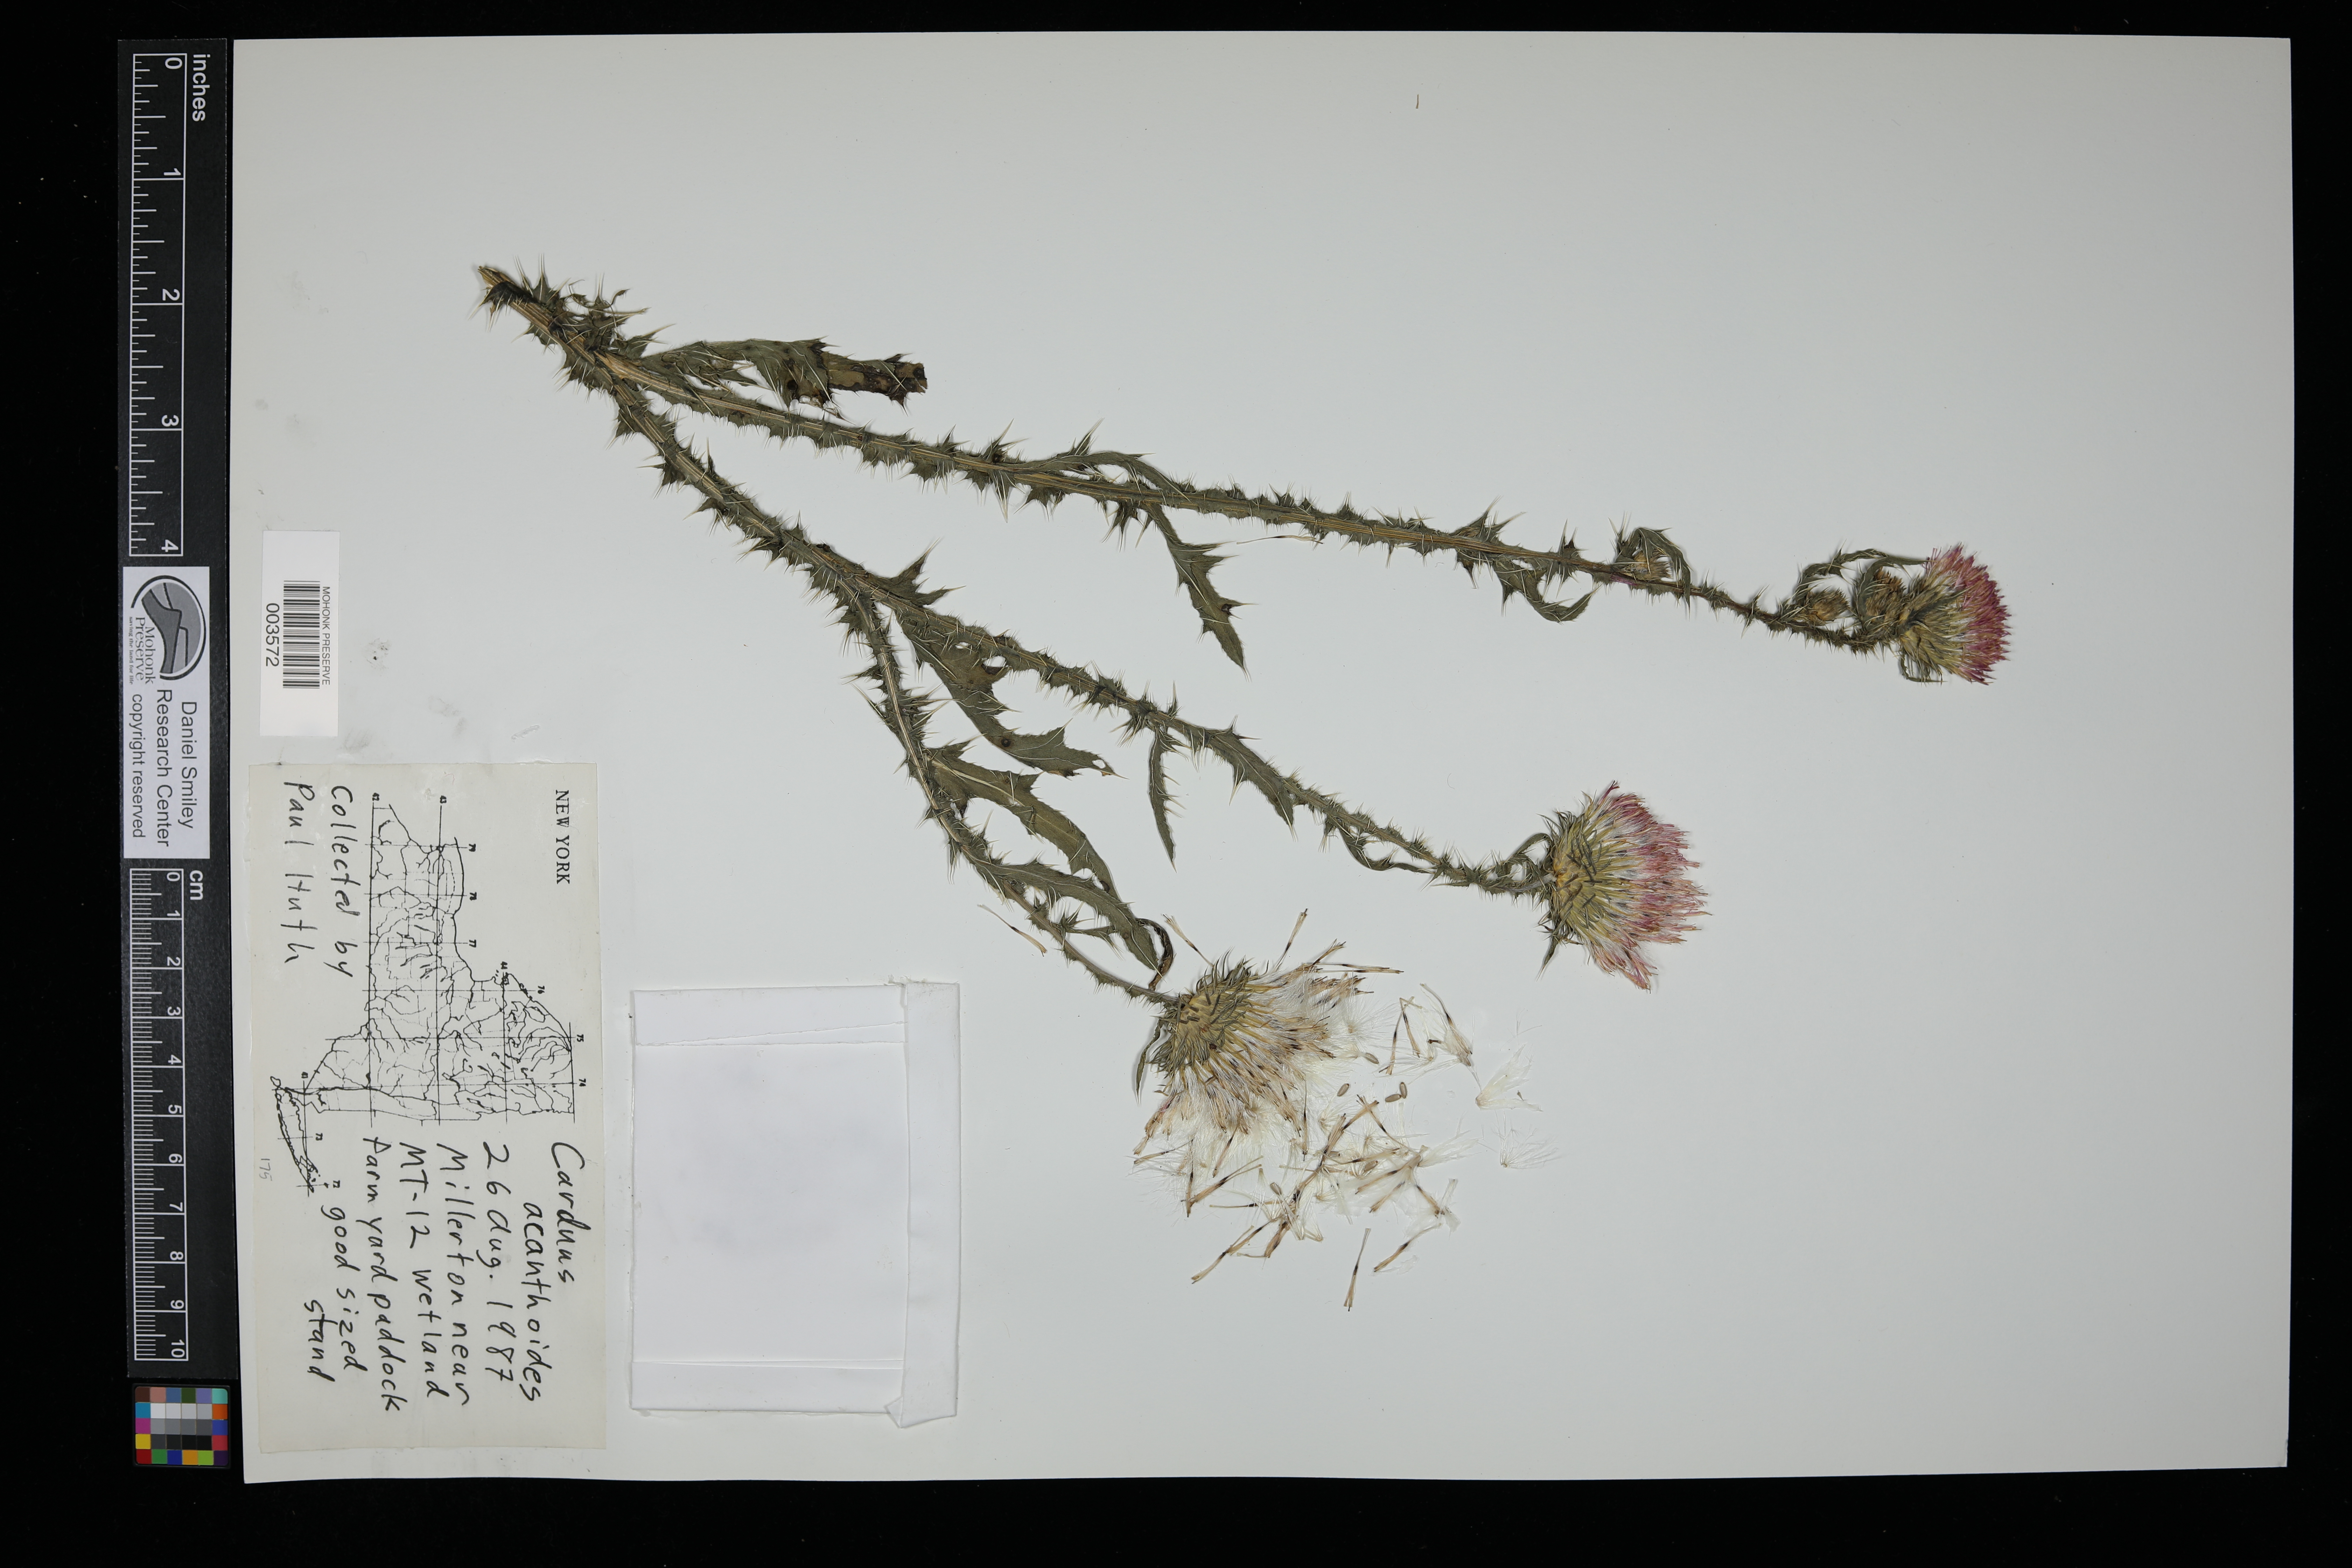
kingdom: Plantae
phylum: Tracheophyta
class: Magnoliopsida
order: Asterales
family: Asteraceae
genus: Carduus
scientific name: Carduus acanthoides
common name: Plumeless thistle
